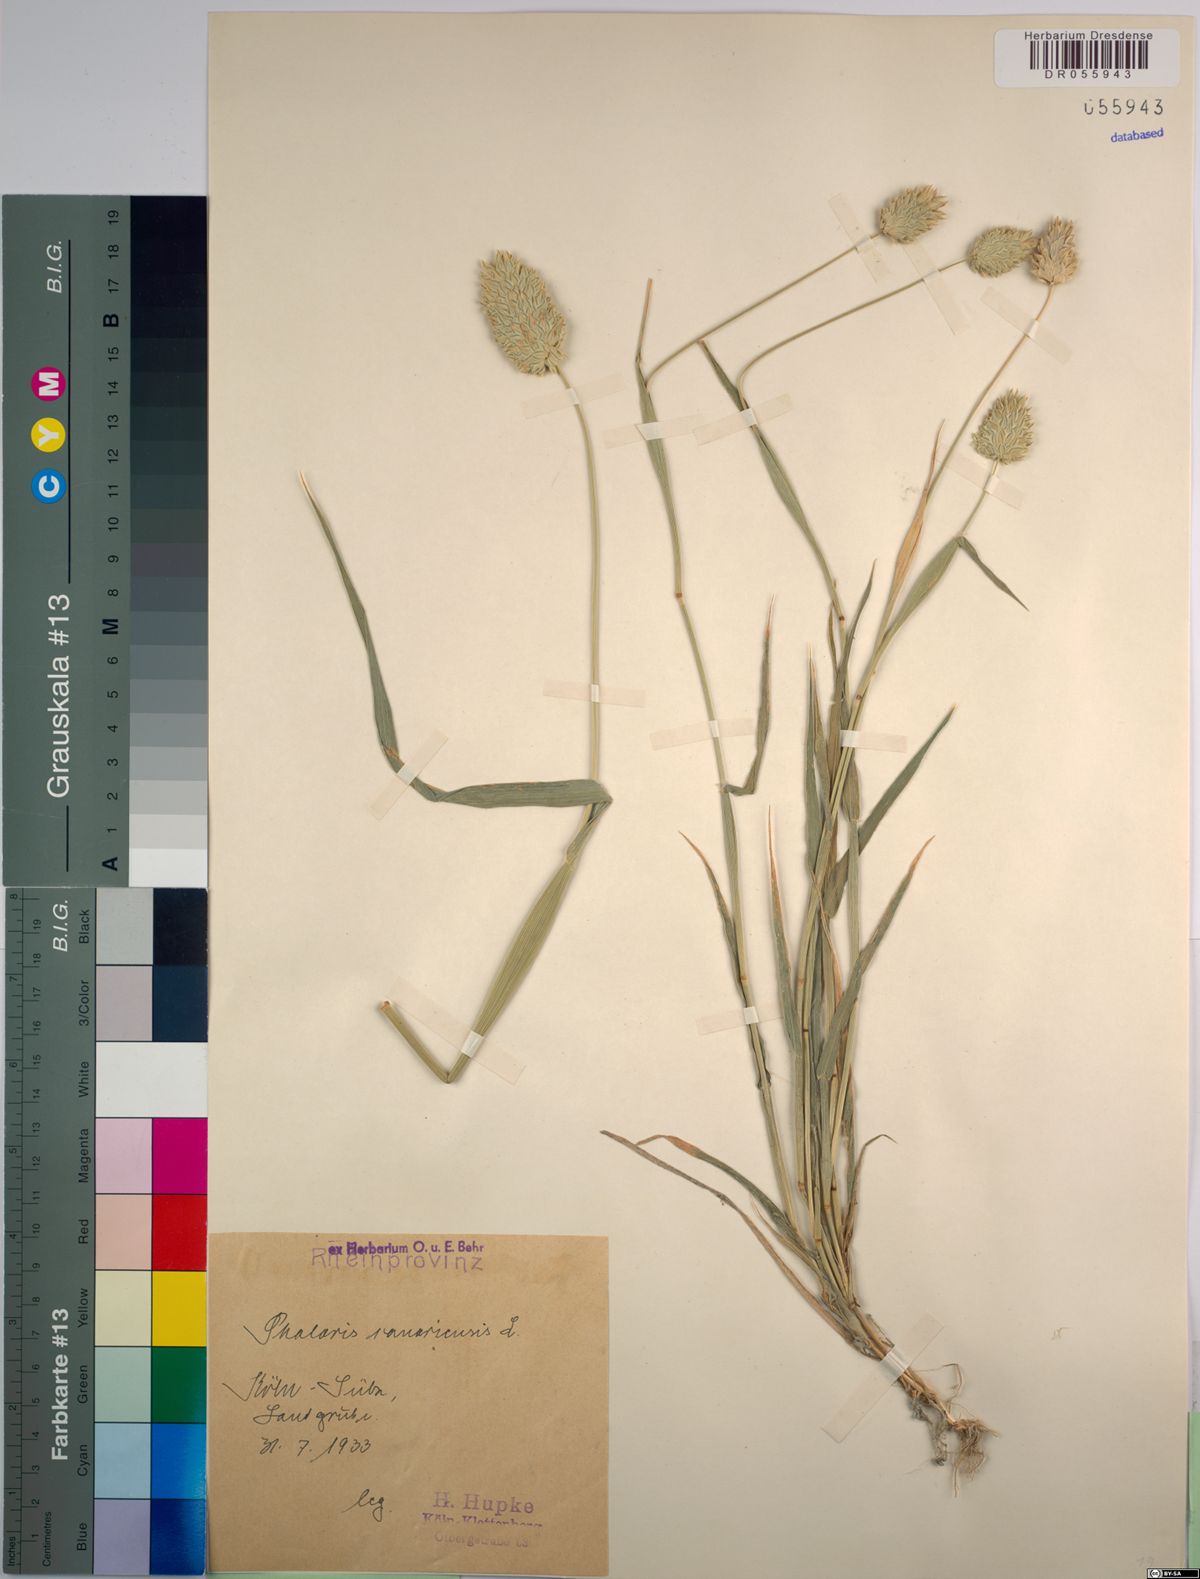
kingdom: Plantae
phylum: Tracheophyta
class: Liliopsida
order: Poales
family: Poaceae
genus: Phalaris
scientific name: Phalaris canariensis
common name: Annual canarygrass
